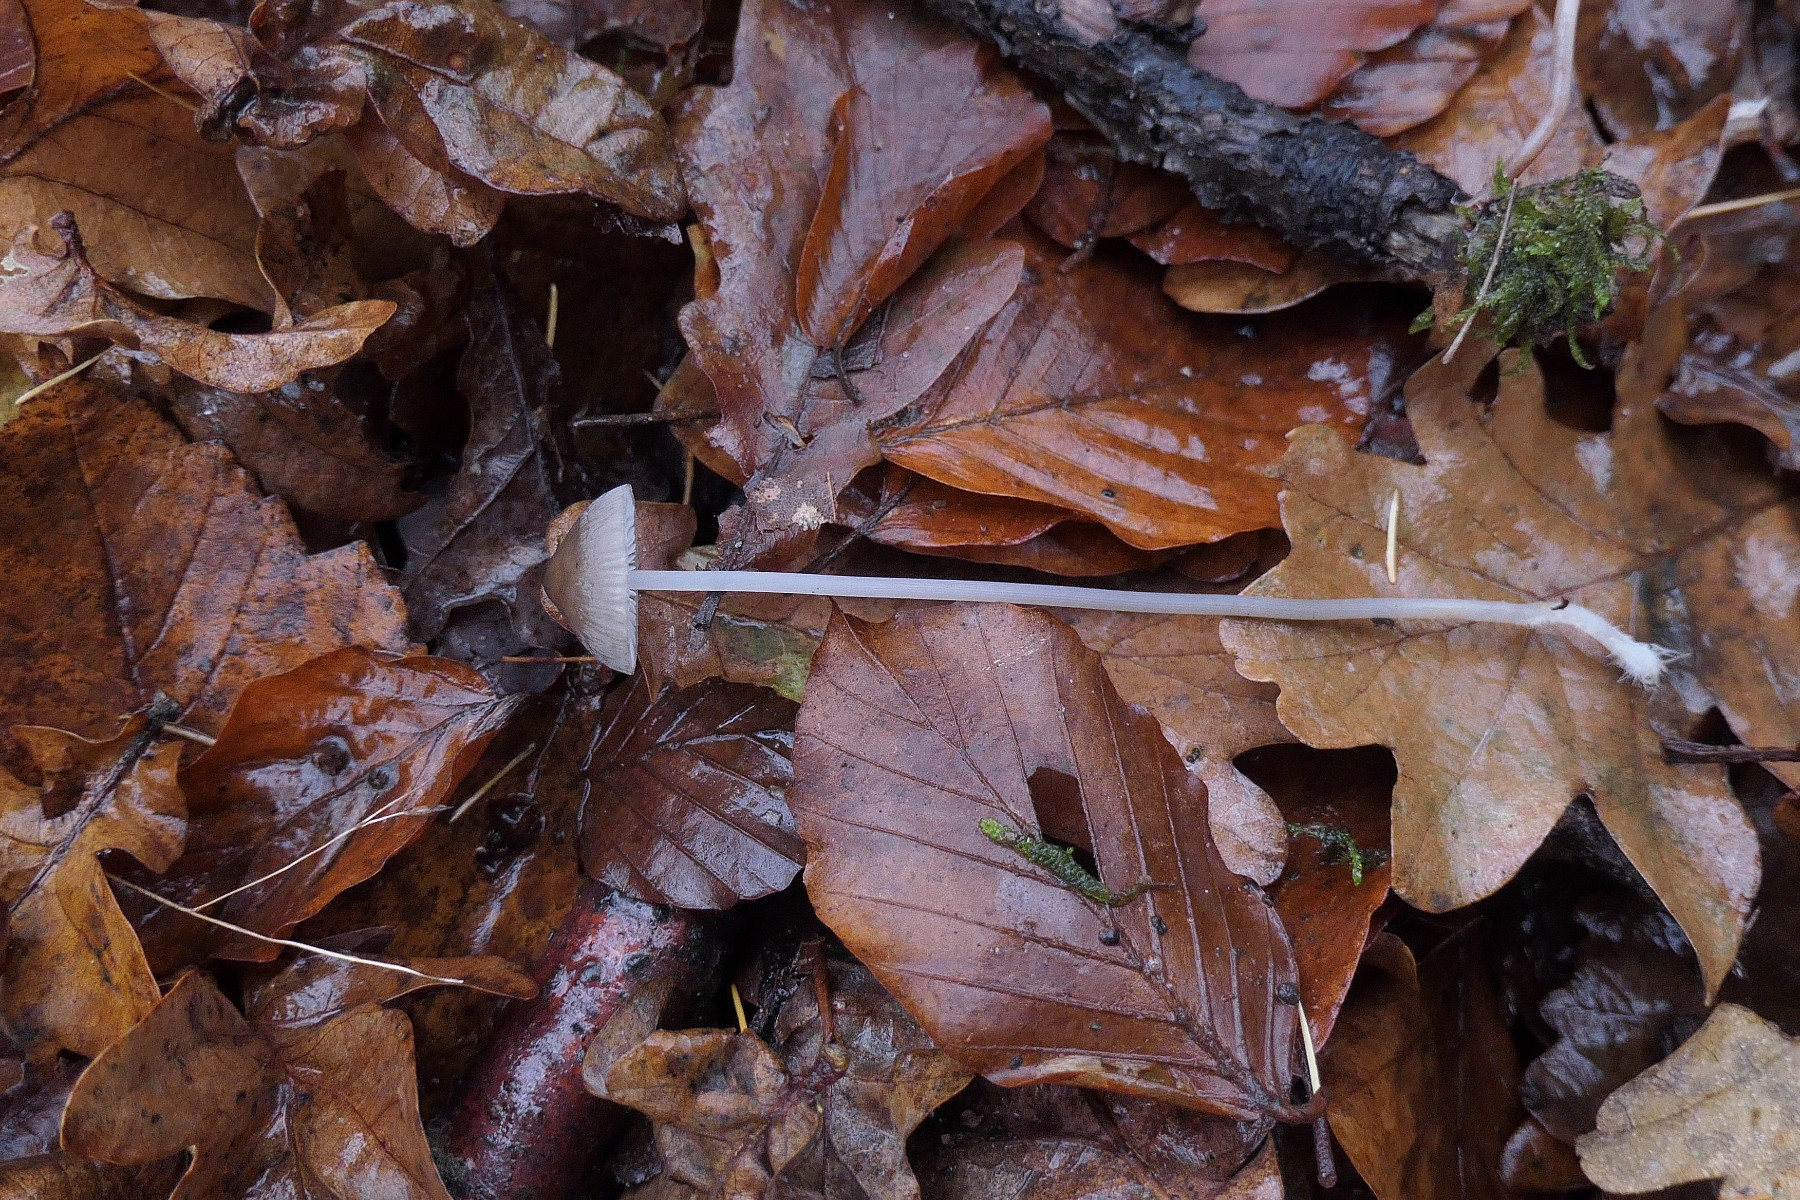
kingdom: Fungi
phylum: Basidiomycota
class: Agaricomycetes
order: Agaricales
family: Mycenaceae
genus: Mycena
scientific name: Mycena polygramma
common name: mangestribet huesvamp
